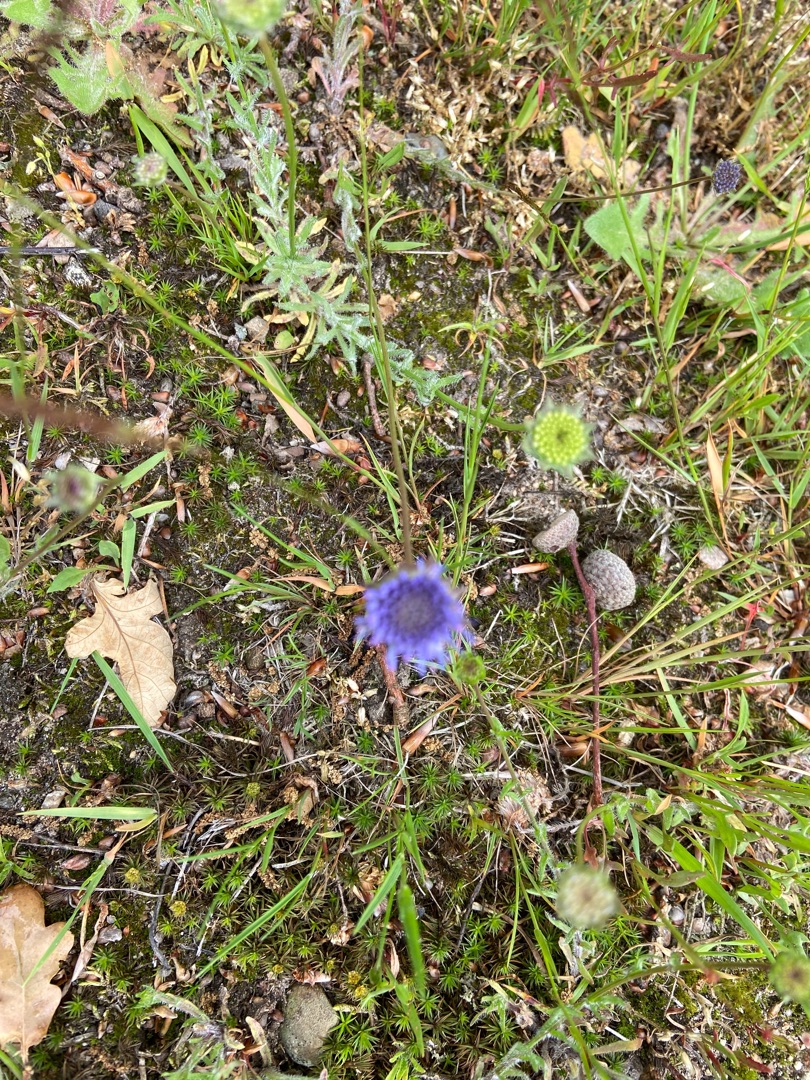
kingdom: Plantae
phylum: Tracheophyta
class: Magnoliopsida
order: Asterales
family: Campanulaceae
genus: Jasione
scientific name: Jasione montana
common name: Blåmunke
